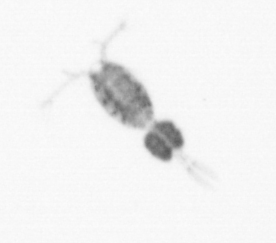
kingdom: Animalia
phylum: Arthropoda
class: Copepoda
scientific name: Copepoda
